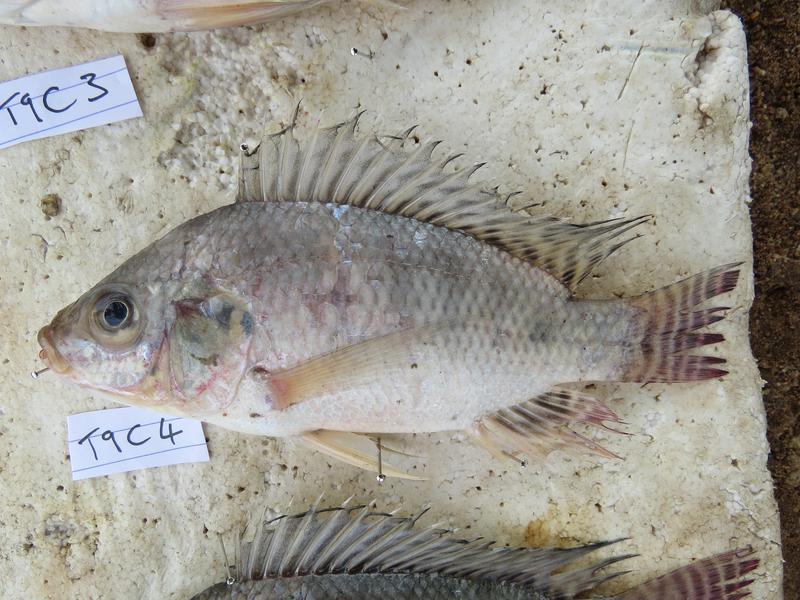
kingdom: Animalia
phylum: Chordata
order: Perciformes
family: Cichlidae
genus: Oreochromis
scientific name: Oreochromis niloticus
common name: Nile tilapia
